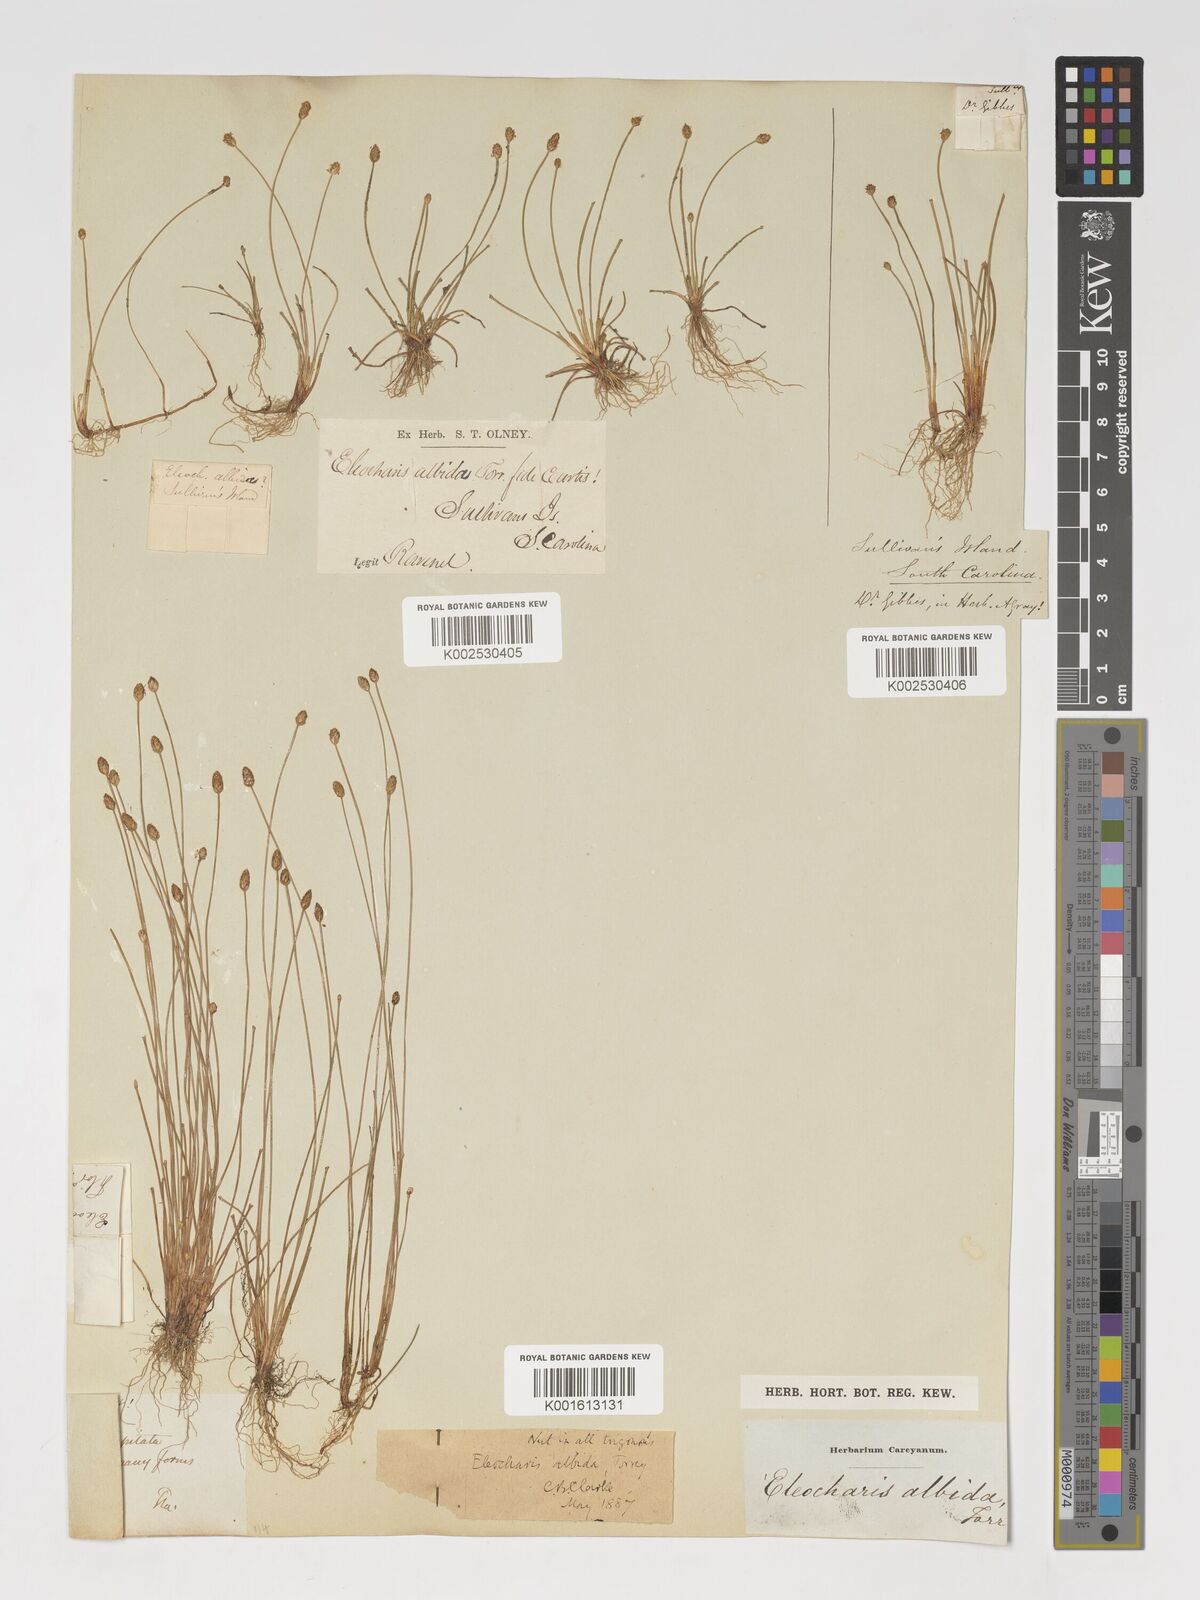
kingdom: Plantae
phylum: Tracheophyta
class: Liliopsida
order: Poales
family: Cyperaceae
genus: Eleocharis
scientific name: Eleocharis albida
